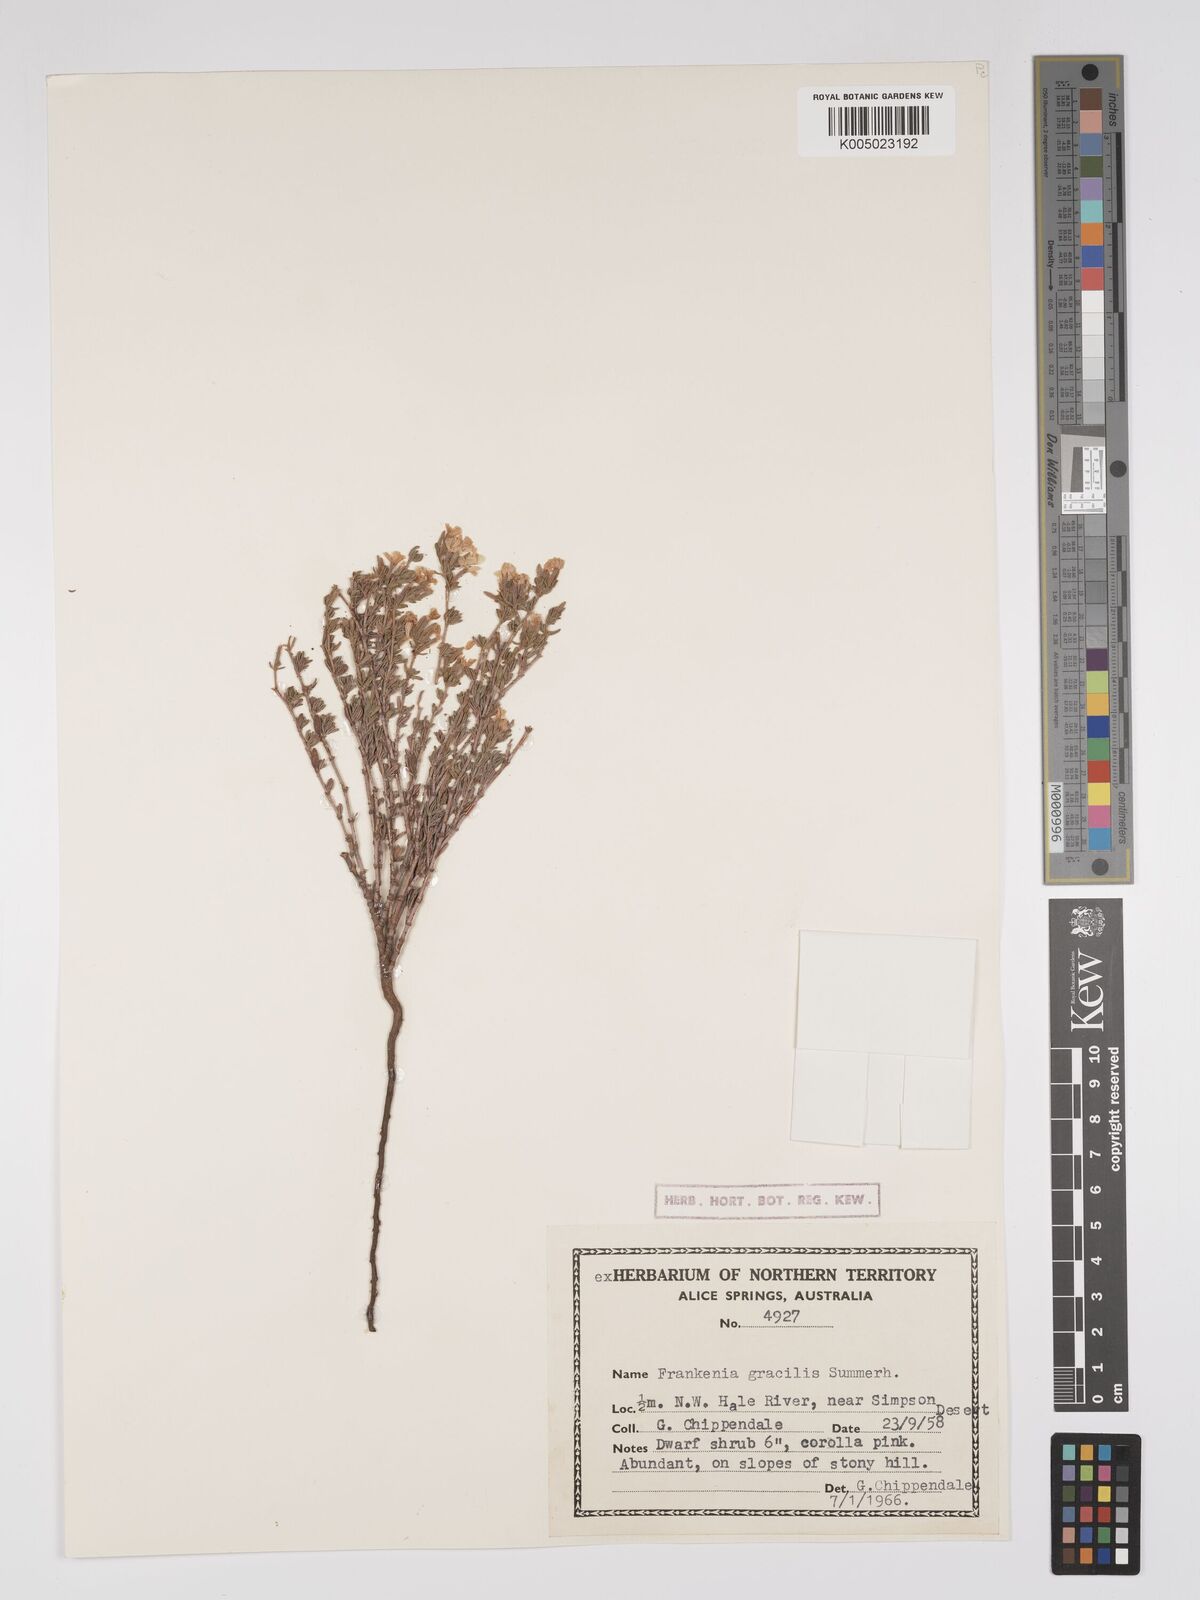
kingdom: Plantae
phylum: Tracheophyta
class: Magnoliopsida
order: Caryophyllales
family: Frankeniaceae
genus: Frankenia
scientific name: Frankenia gracilis
